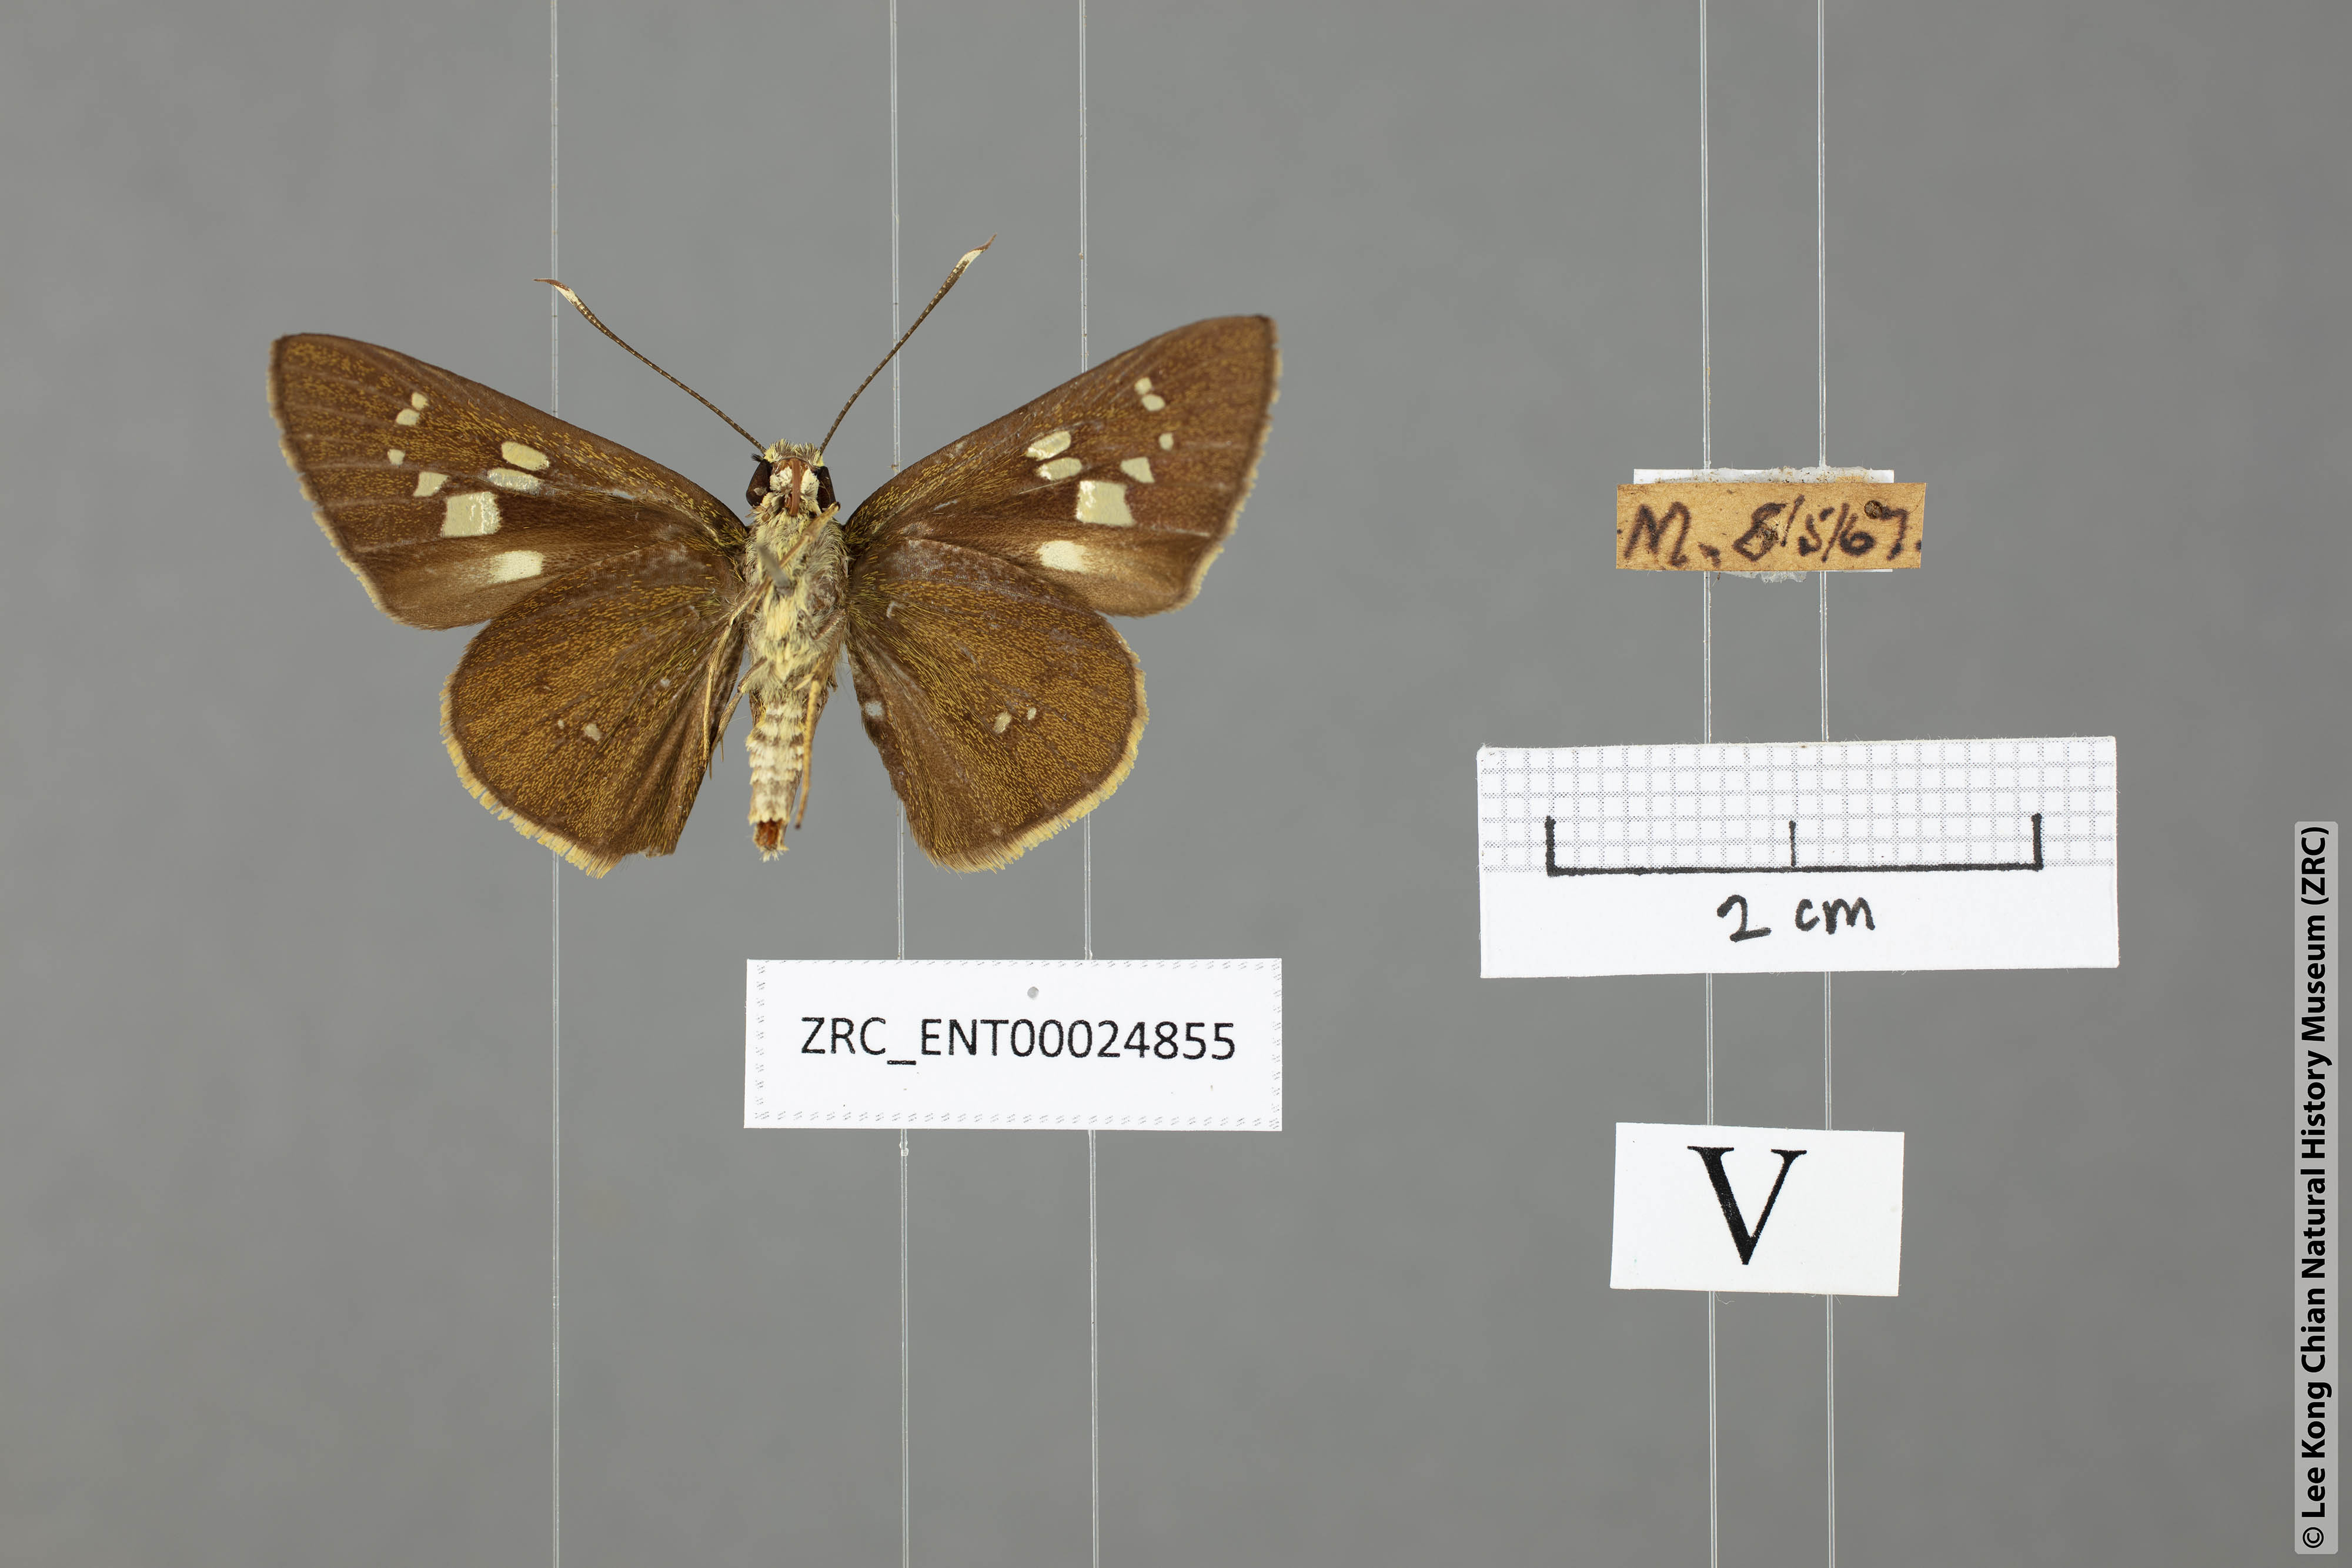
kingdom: Animalia
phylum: Arthropoda
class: Insecta
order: Lepidoptera
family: Hesperiidae
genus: Isma
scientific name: Isma
